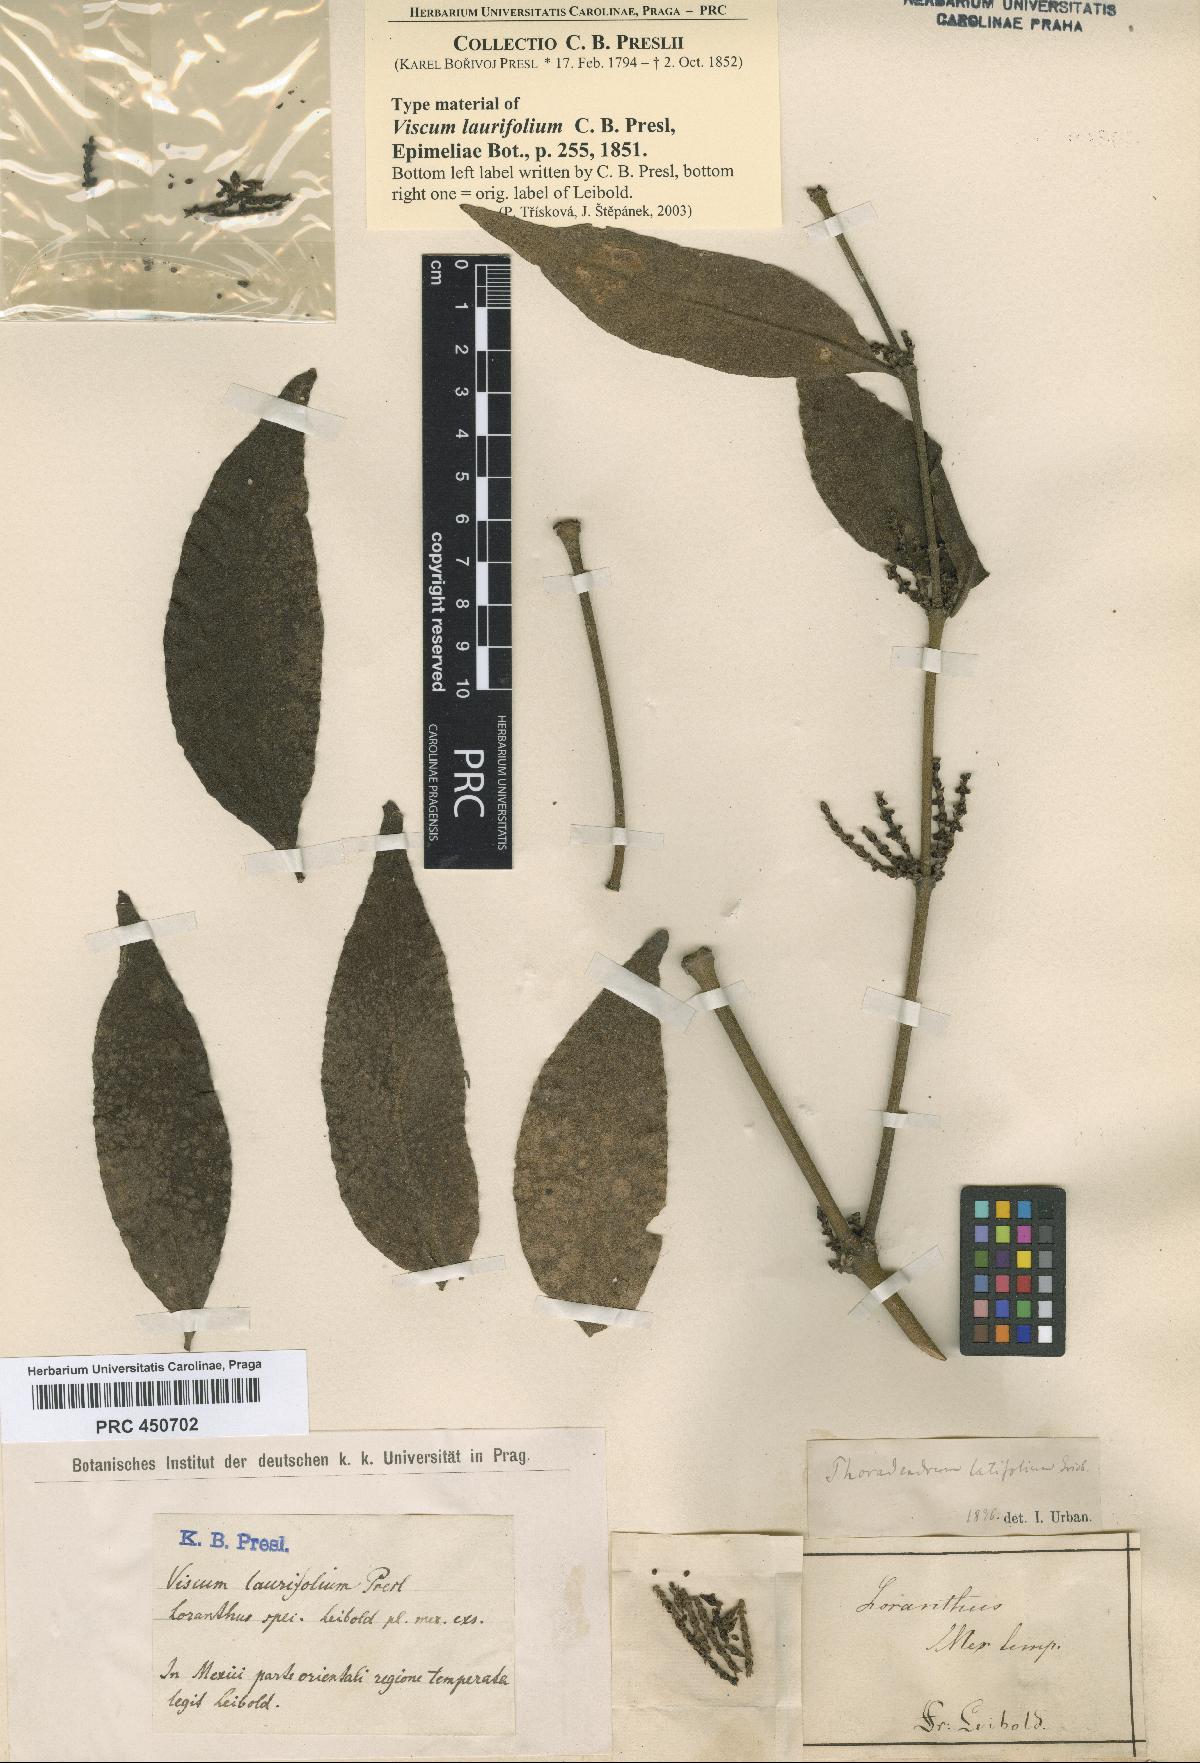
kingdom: Plantae
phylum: Tracheophyta
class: Magnoliopsida
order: Santalales
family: Viscaceae
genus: Phoradendron
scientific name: Phoradendron piperoides
